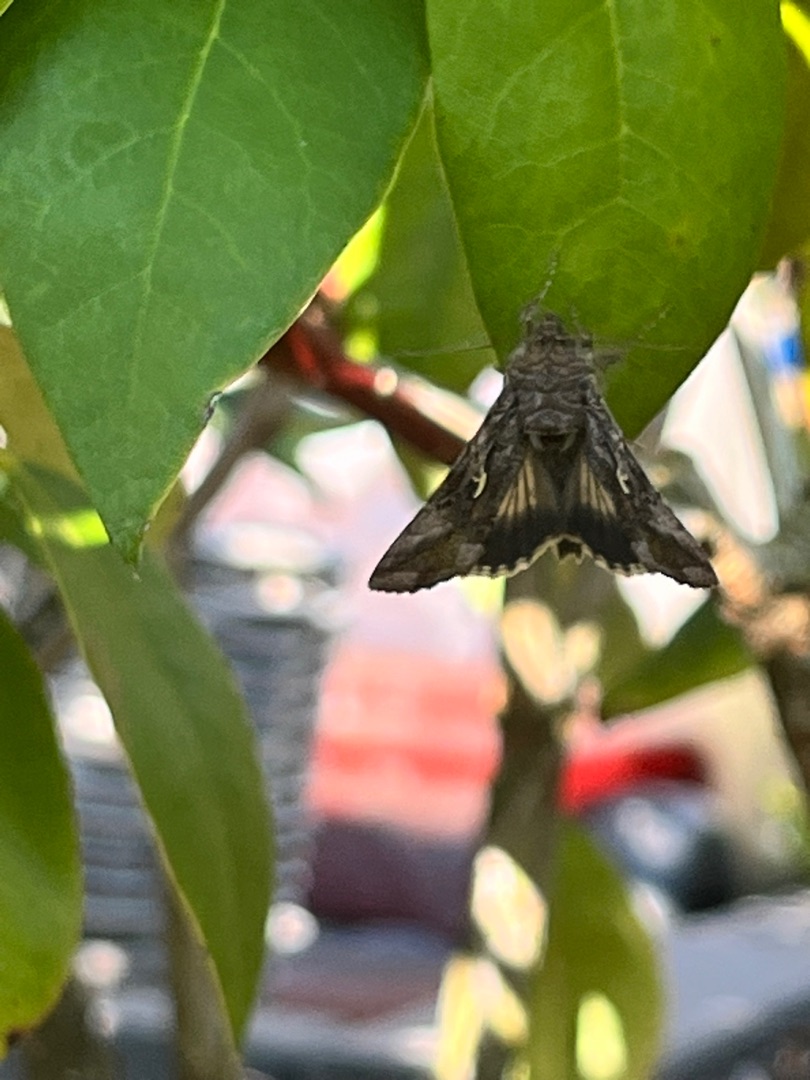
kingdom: Animalia
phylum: Arthropoda
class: Insecta
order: Lepidoptera
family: Noctuidae
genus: Autographa
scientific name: Autographa gamma
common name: Gammaugle
